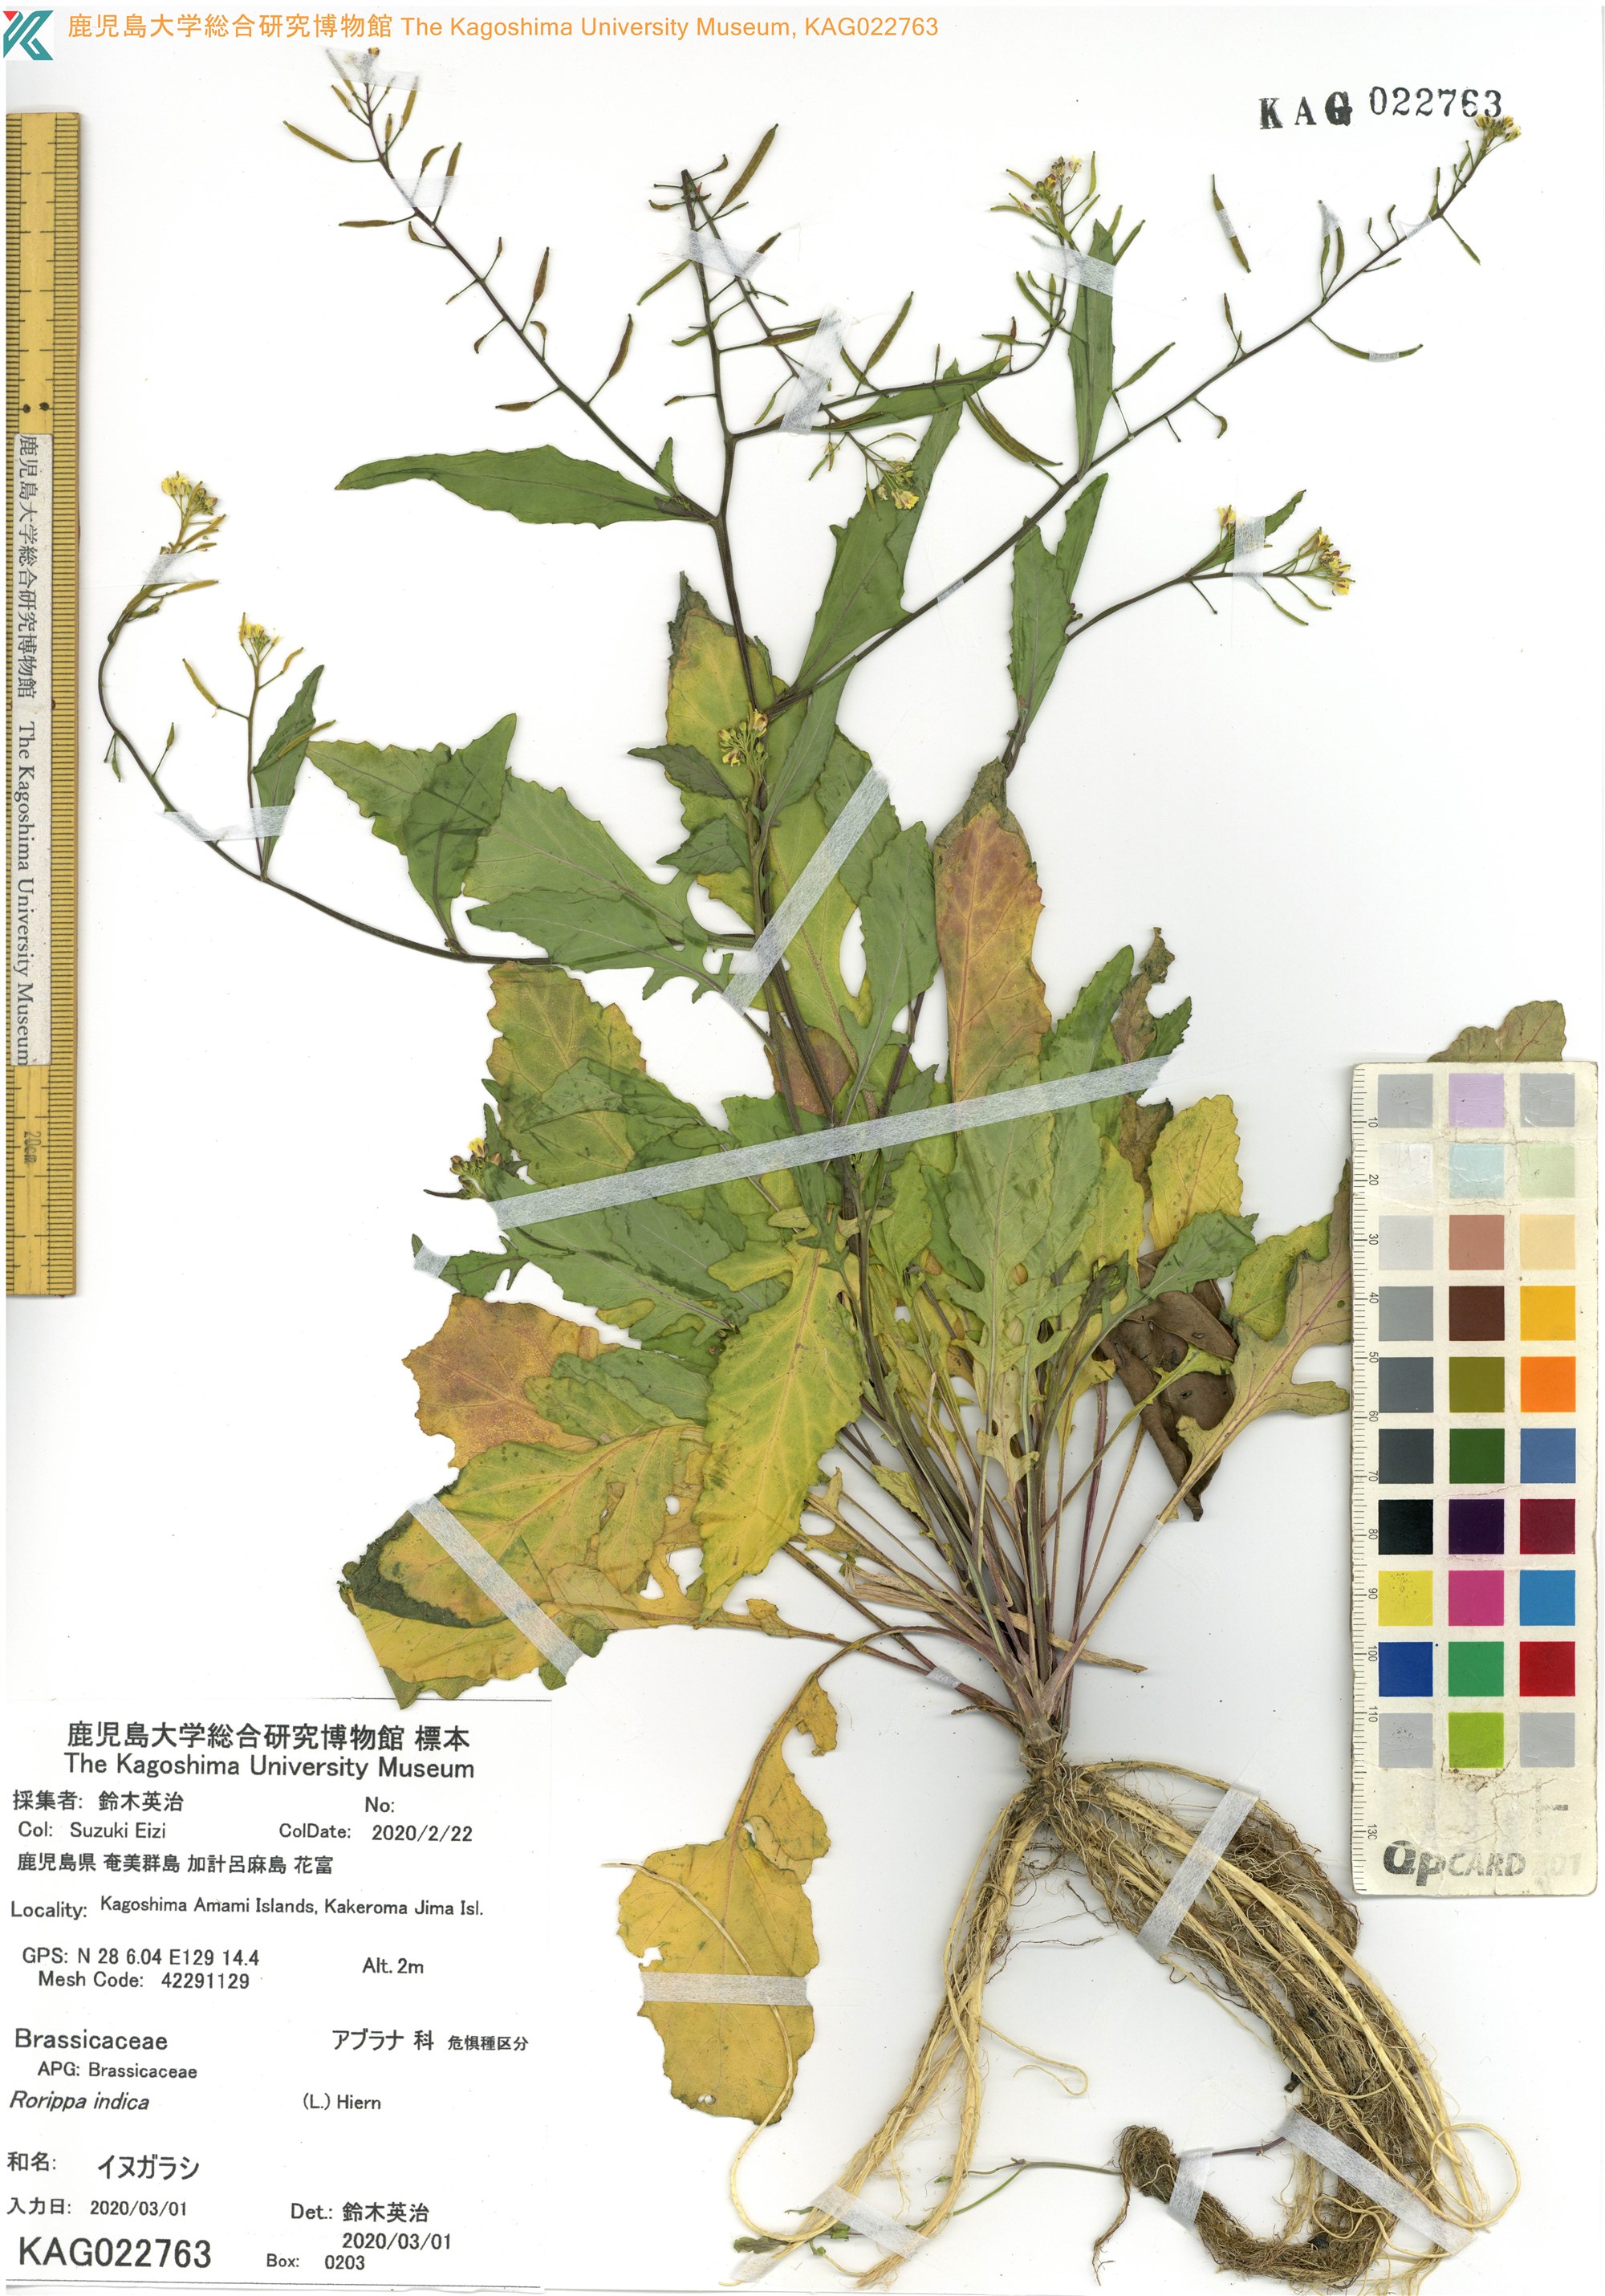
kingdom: Plantae
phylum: Tracheophyta
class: Magnoliopsida
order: Brassicales
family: Brassicaceae
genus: Rorippa
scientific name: Rorippa indica
